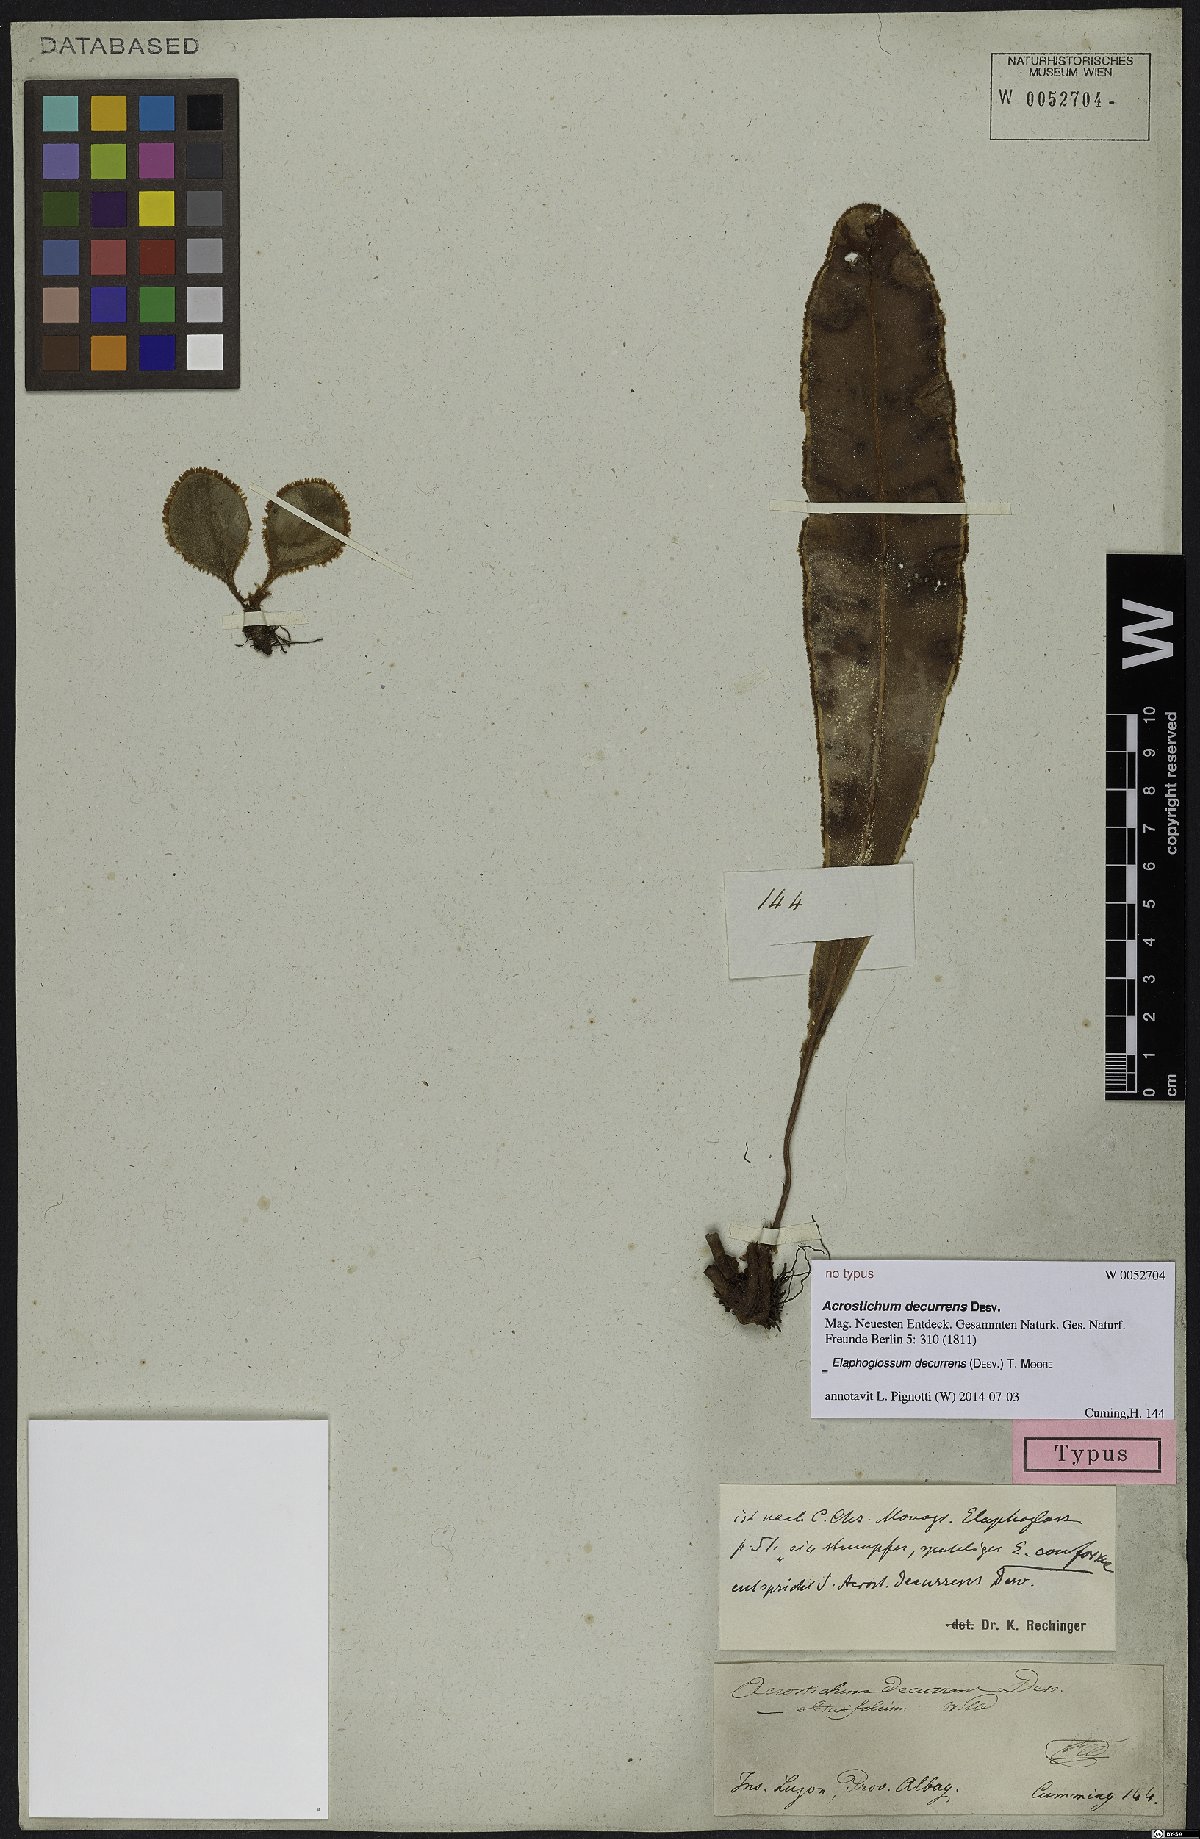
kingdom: Plantae
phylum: Tracheophyta
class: Polypodiopsida
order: Polypodiales
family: Dryopteridaceae
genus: Elaphoglossum
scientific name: Elaphoglossum decurrens
